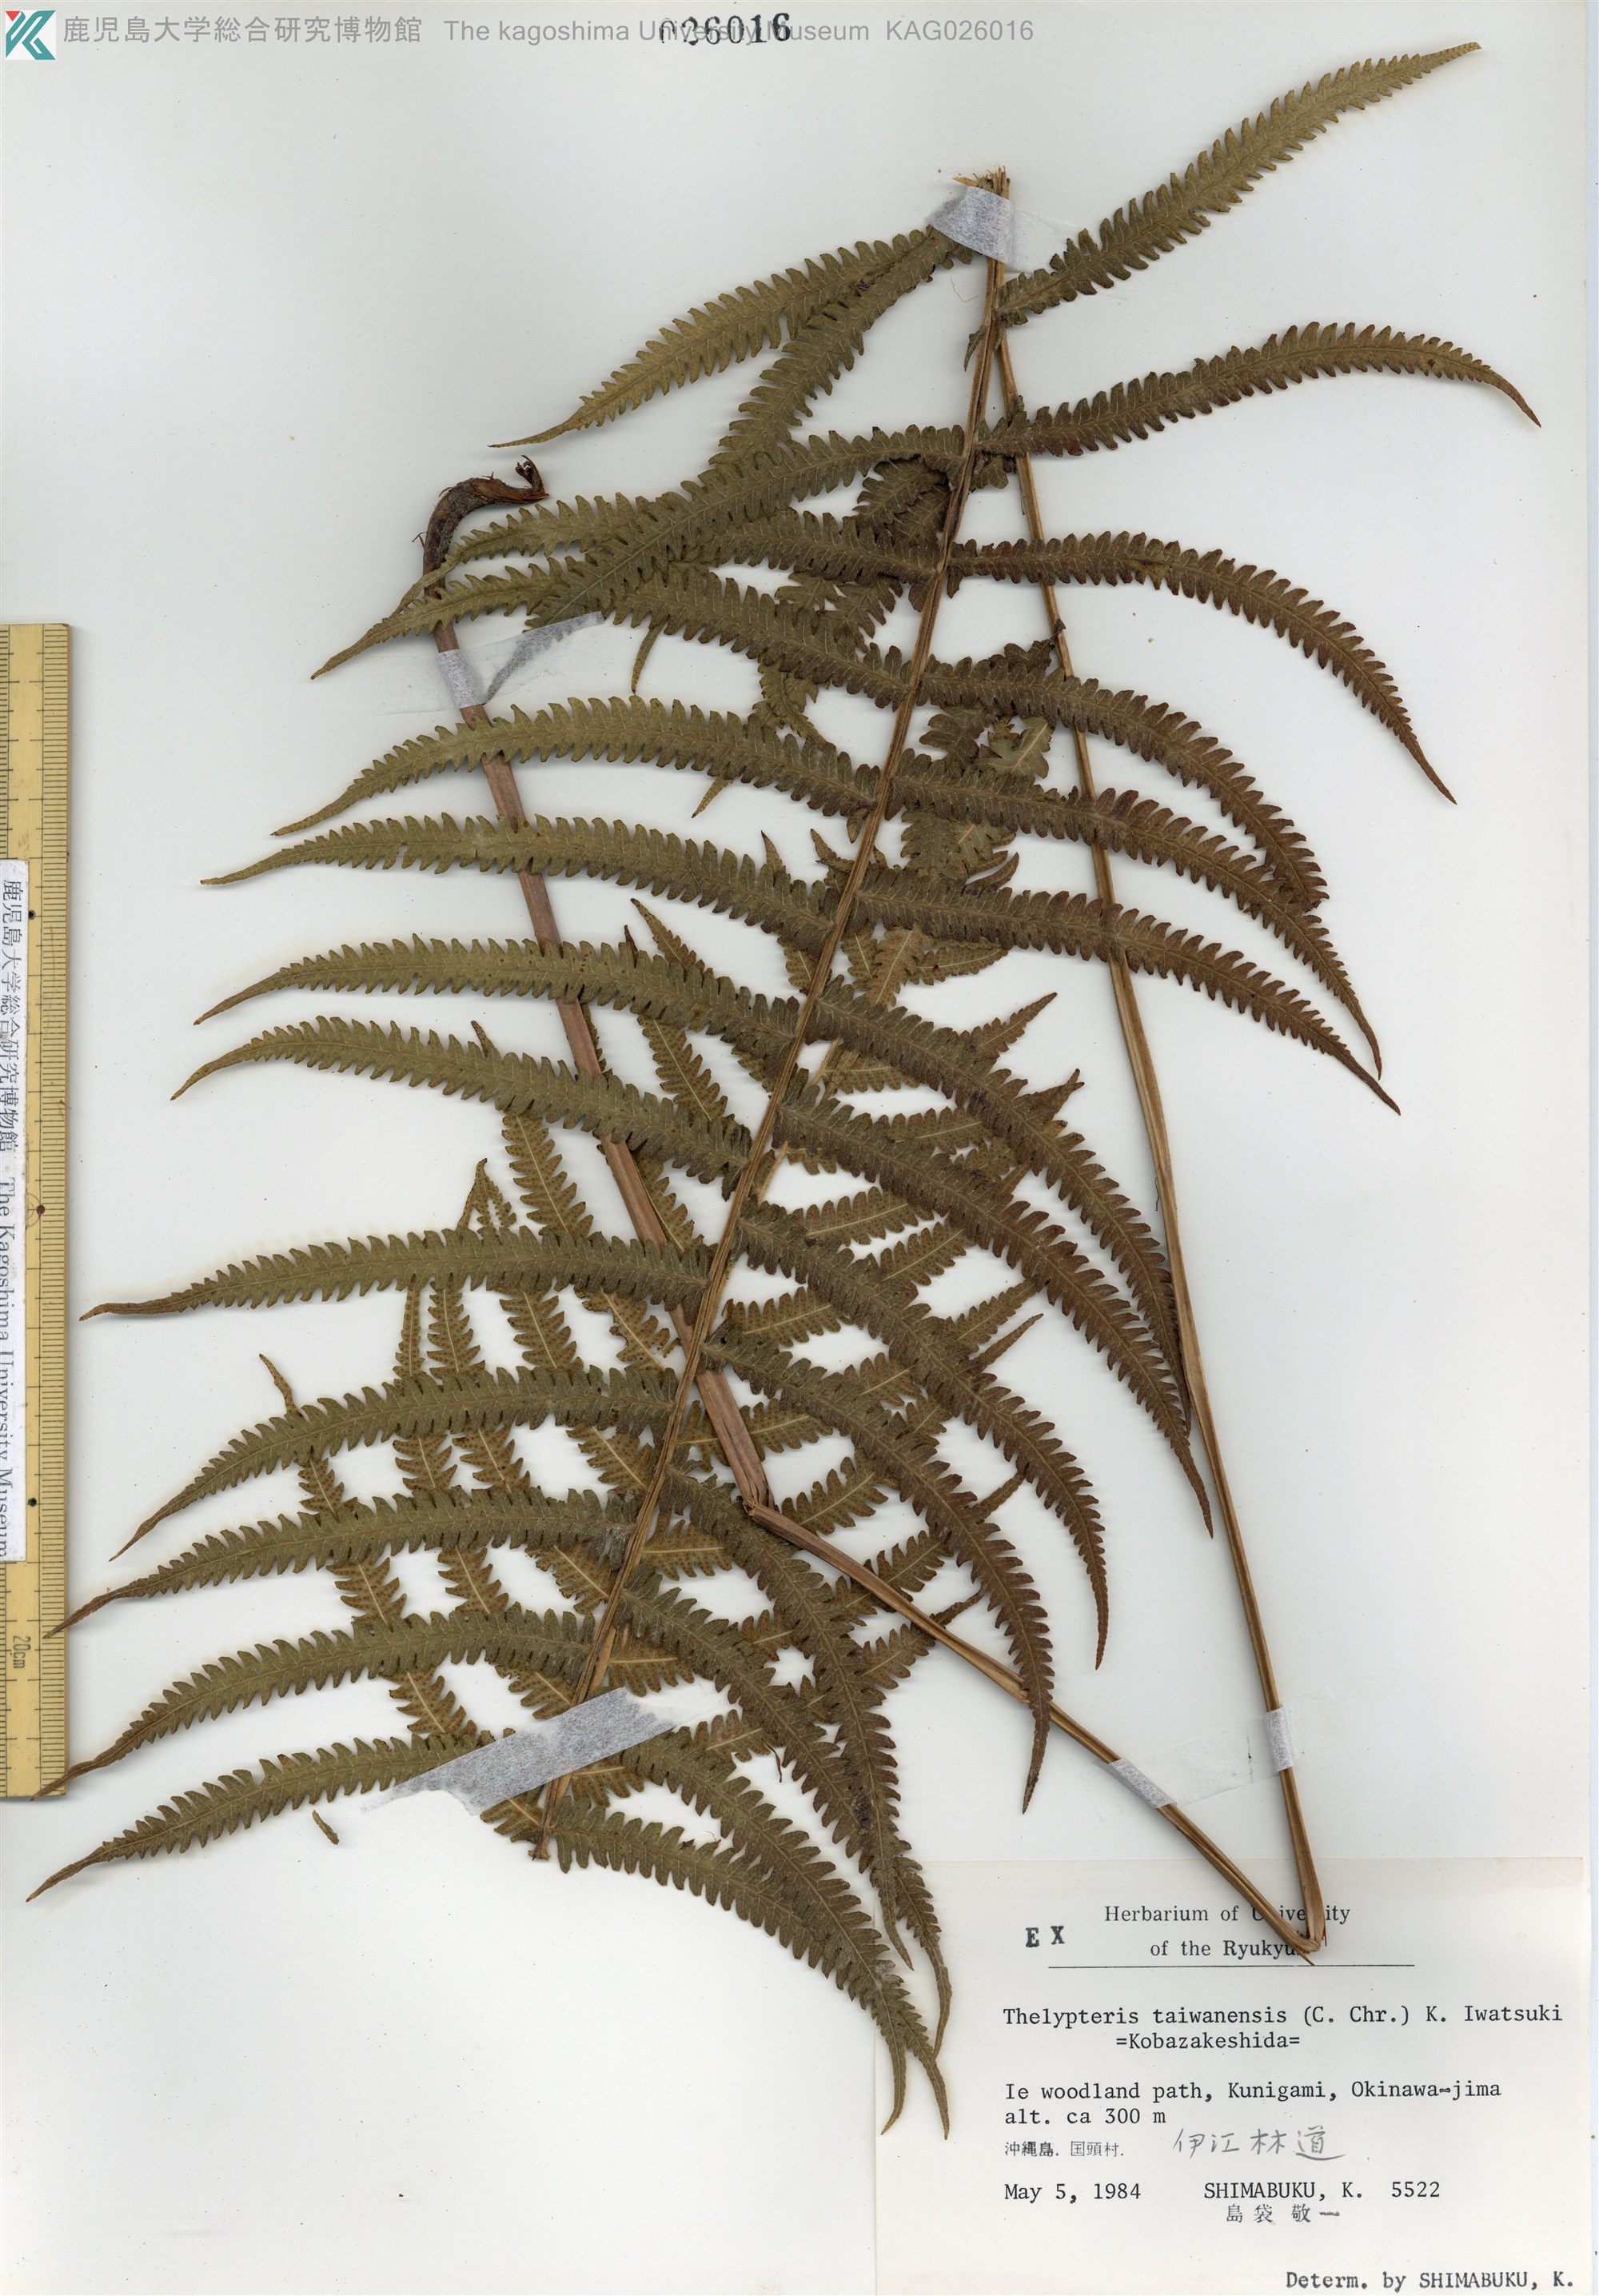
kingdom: Plantae
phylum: Tracheophyta
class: Polypodiopsida
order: Polypodiales
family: Thelypteridaceae
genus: Sphaerostephanos
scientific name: Sphaerostephanos taiwanensis
